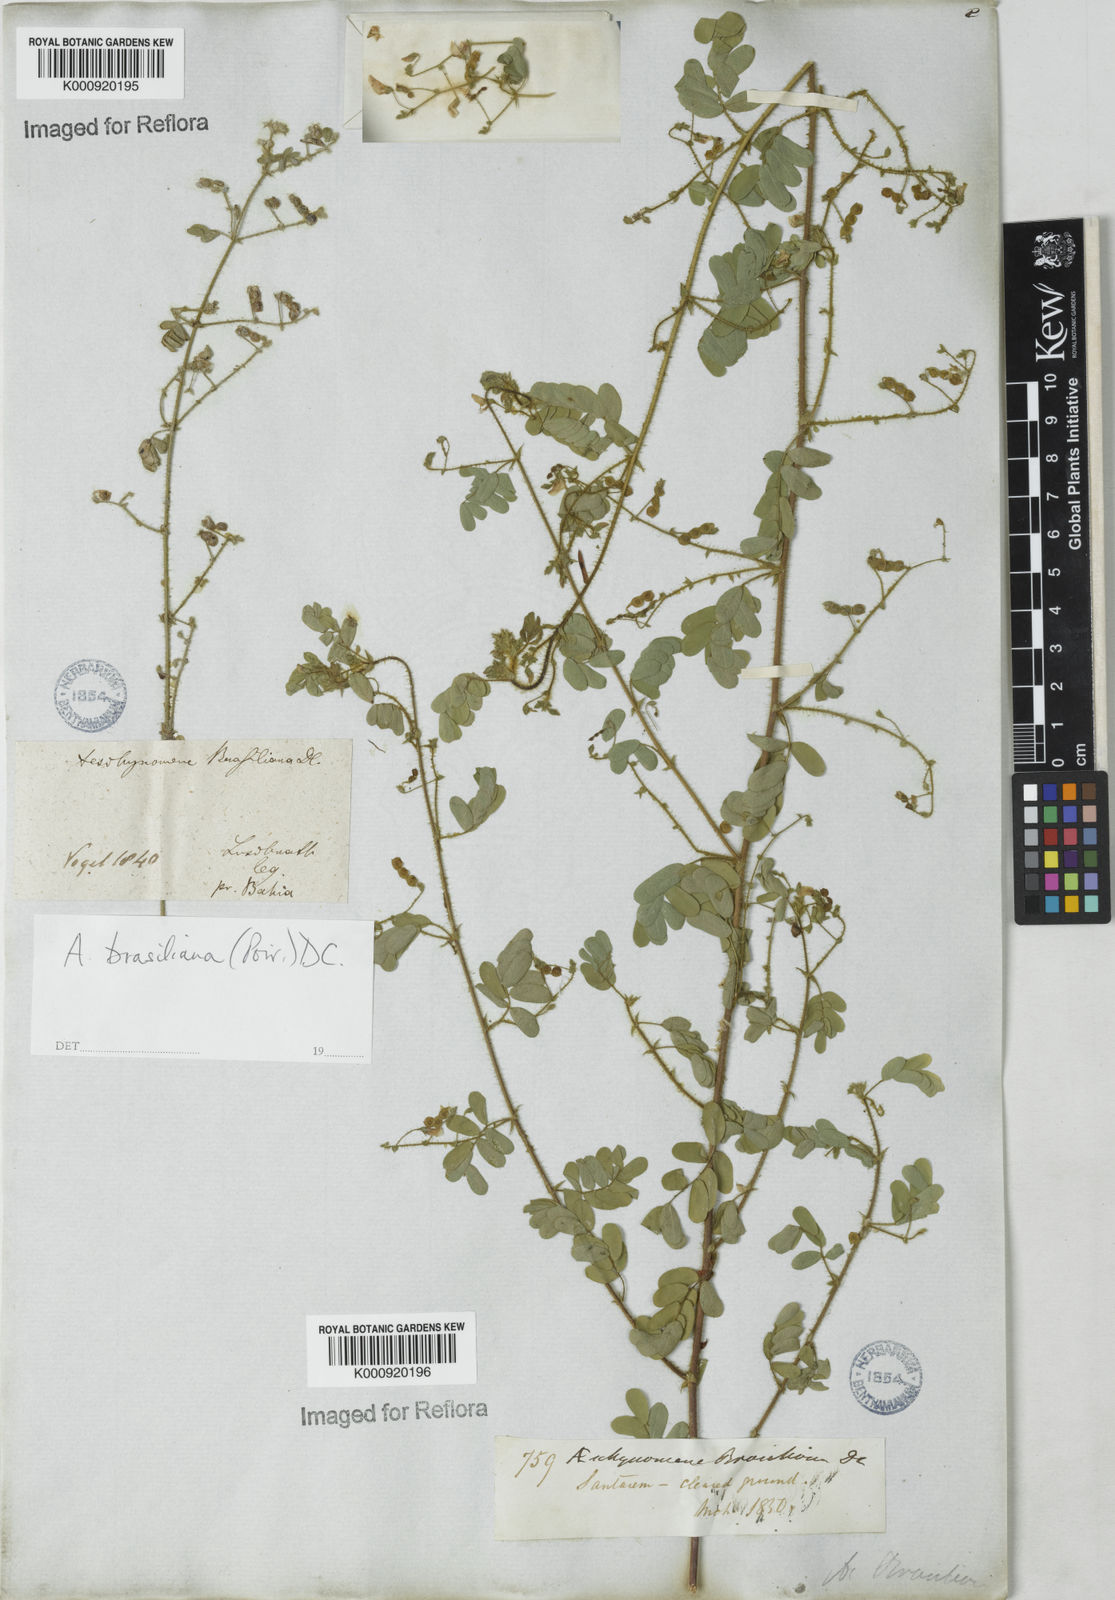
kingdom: Plantae
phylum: Tracheophyta
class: Magnoliopsida
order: Fabales
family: Fabaceae
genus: Ctenodon
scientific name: Ctenodon brasilianus
